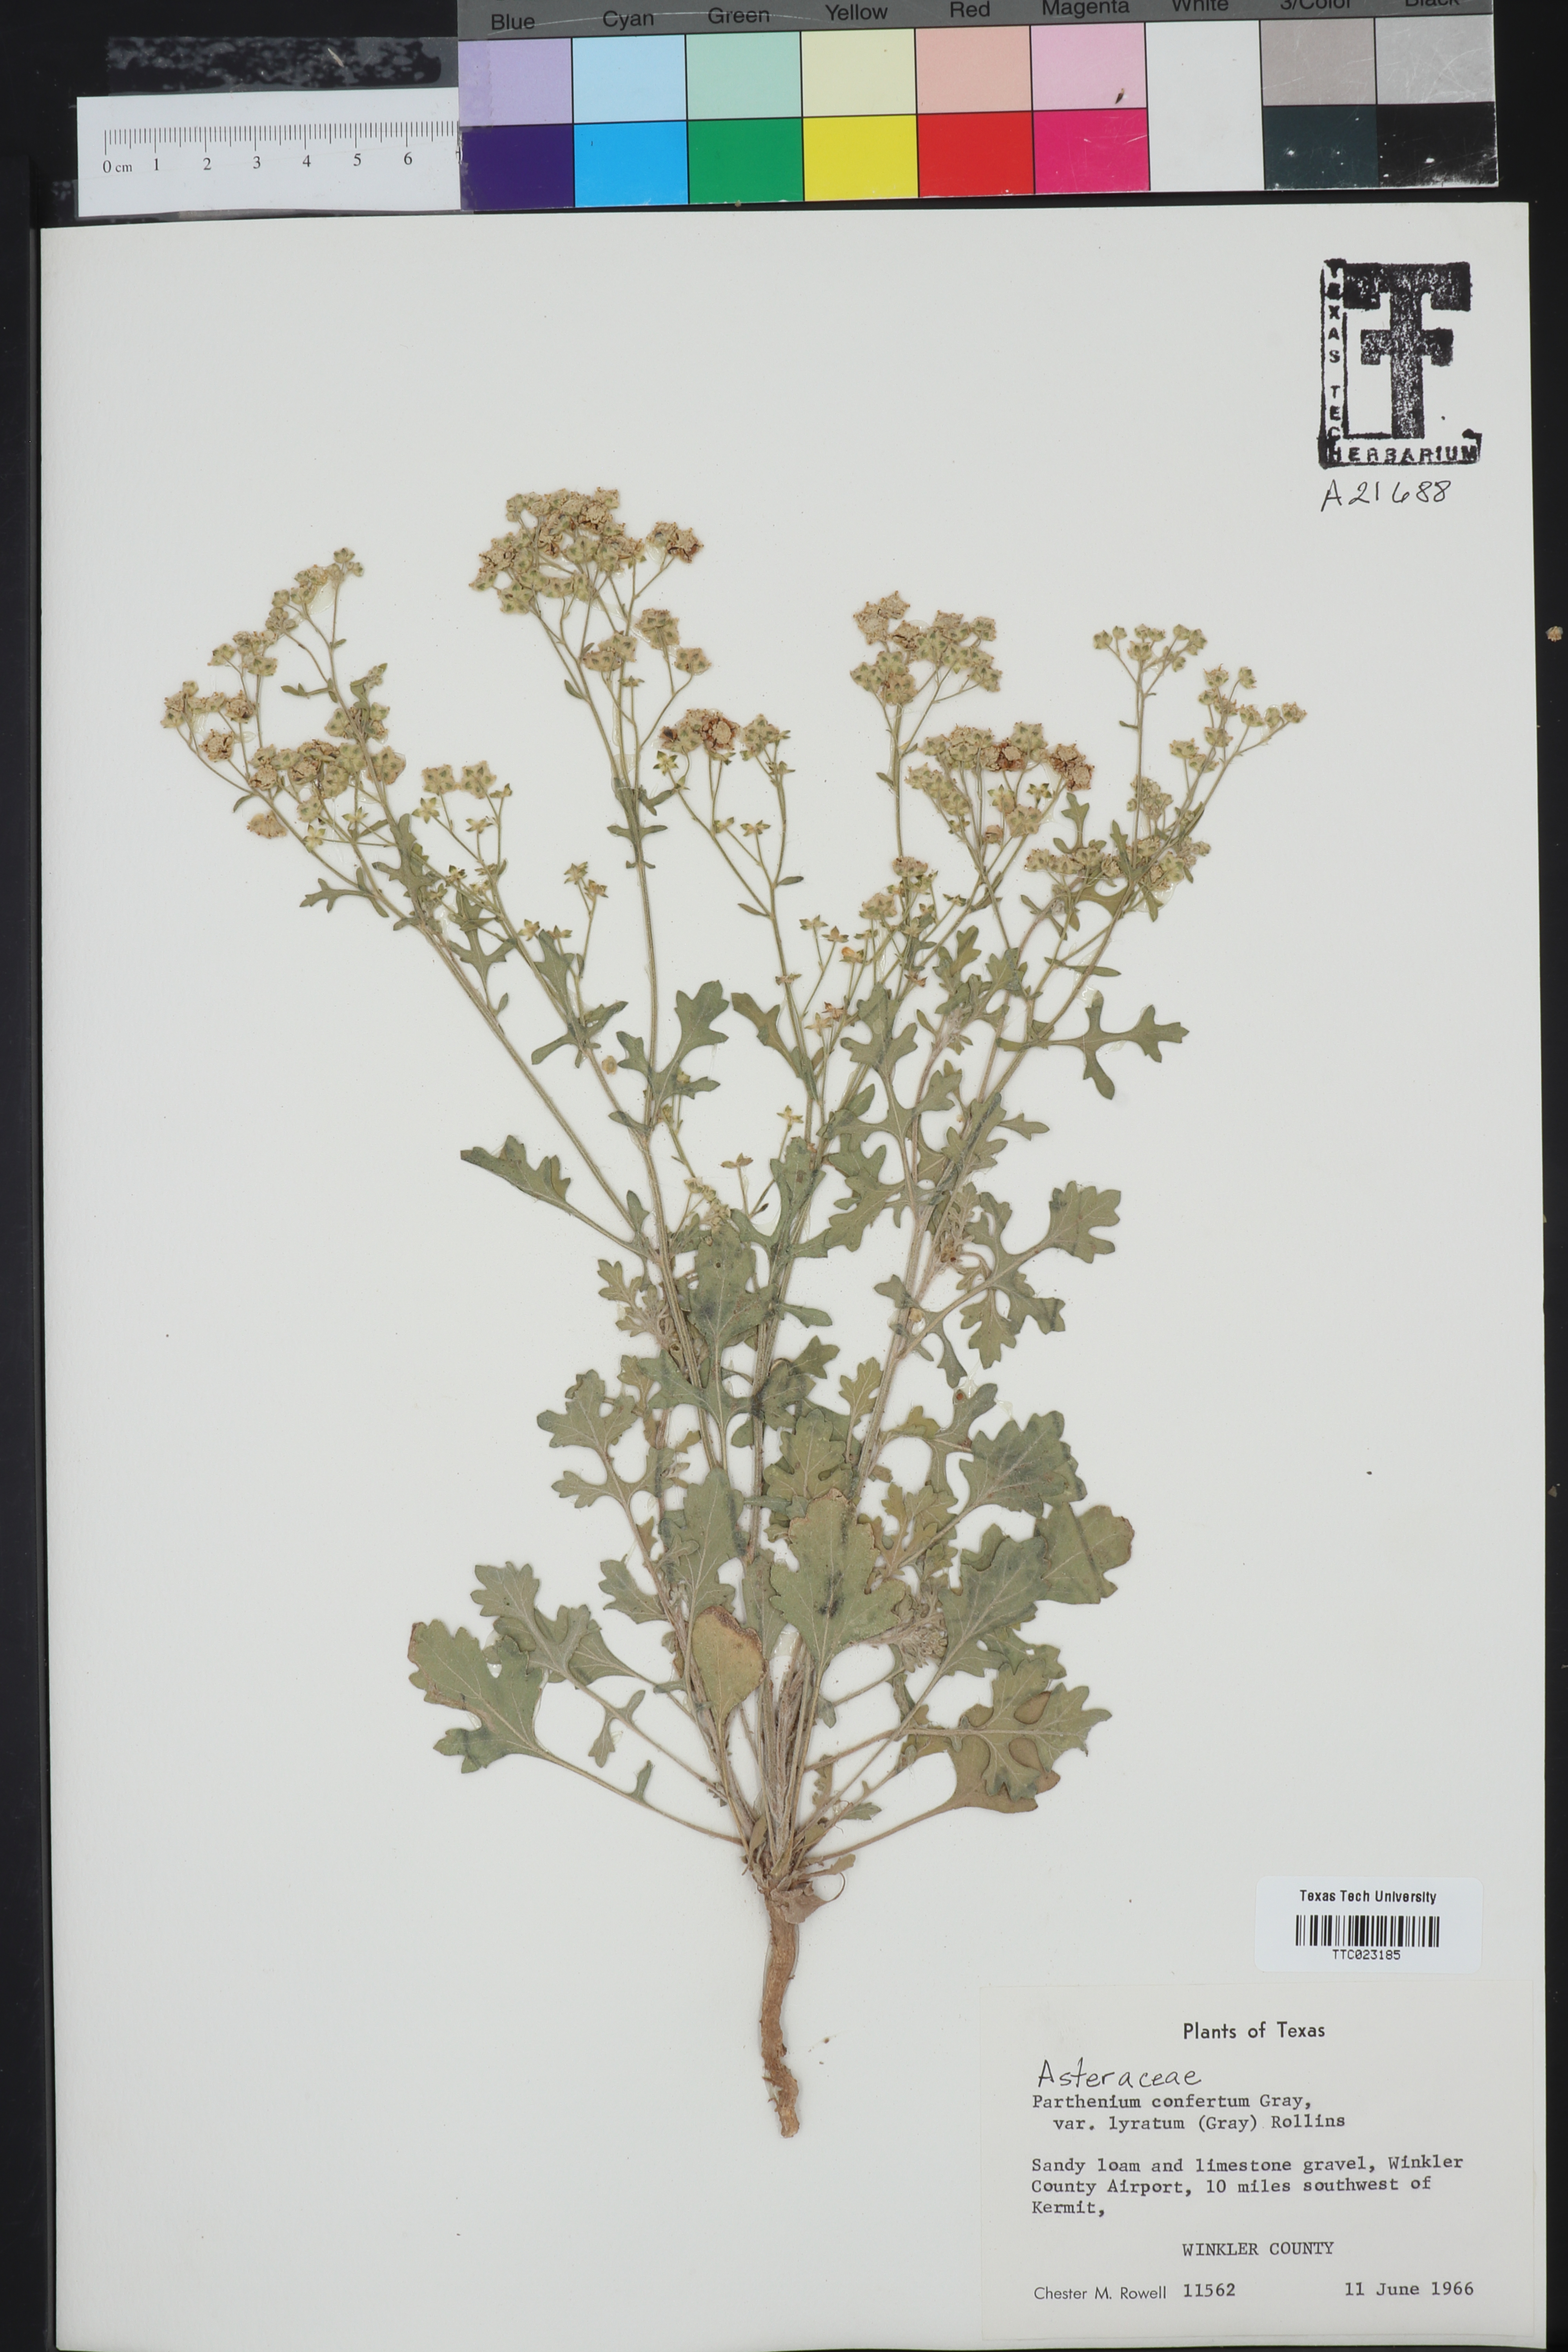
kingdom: Plantae
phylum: Tracheophyta
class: Magnoliopsida
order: Asterales
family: Asteraceae
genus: Parthenium
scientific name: Parthenium confertum
